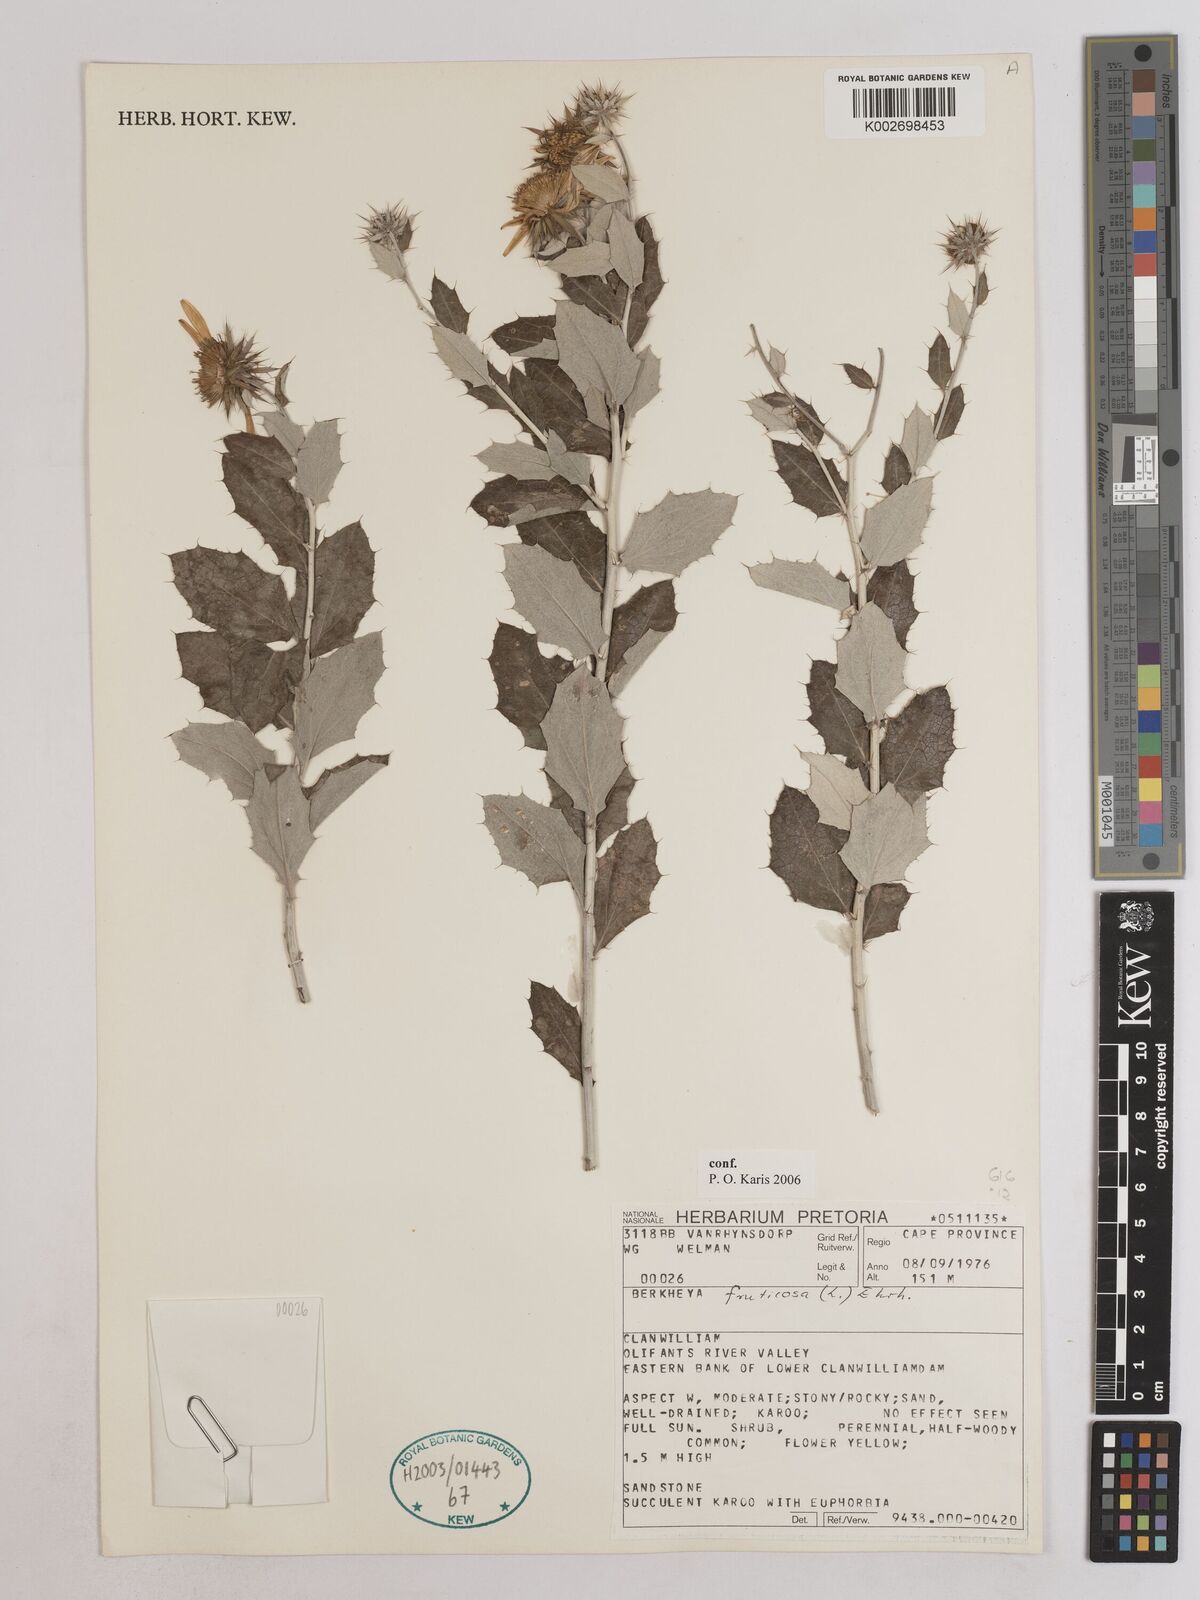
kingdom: Plantae
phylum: Tracheophyta
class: Magnoliopsida
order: Asterales
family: Asteraceae
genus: Berkheya
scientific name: Berkheya fruticosa
